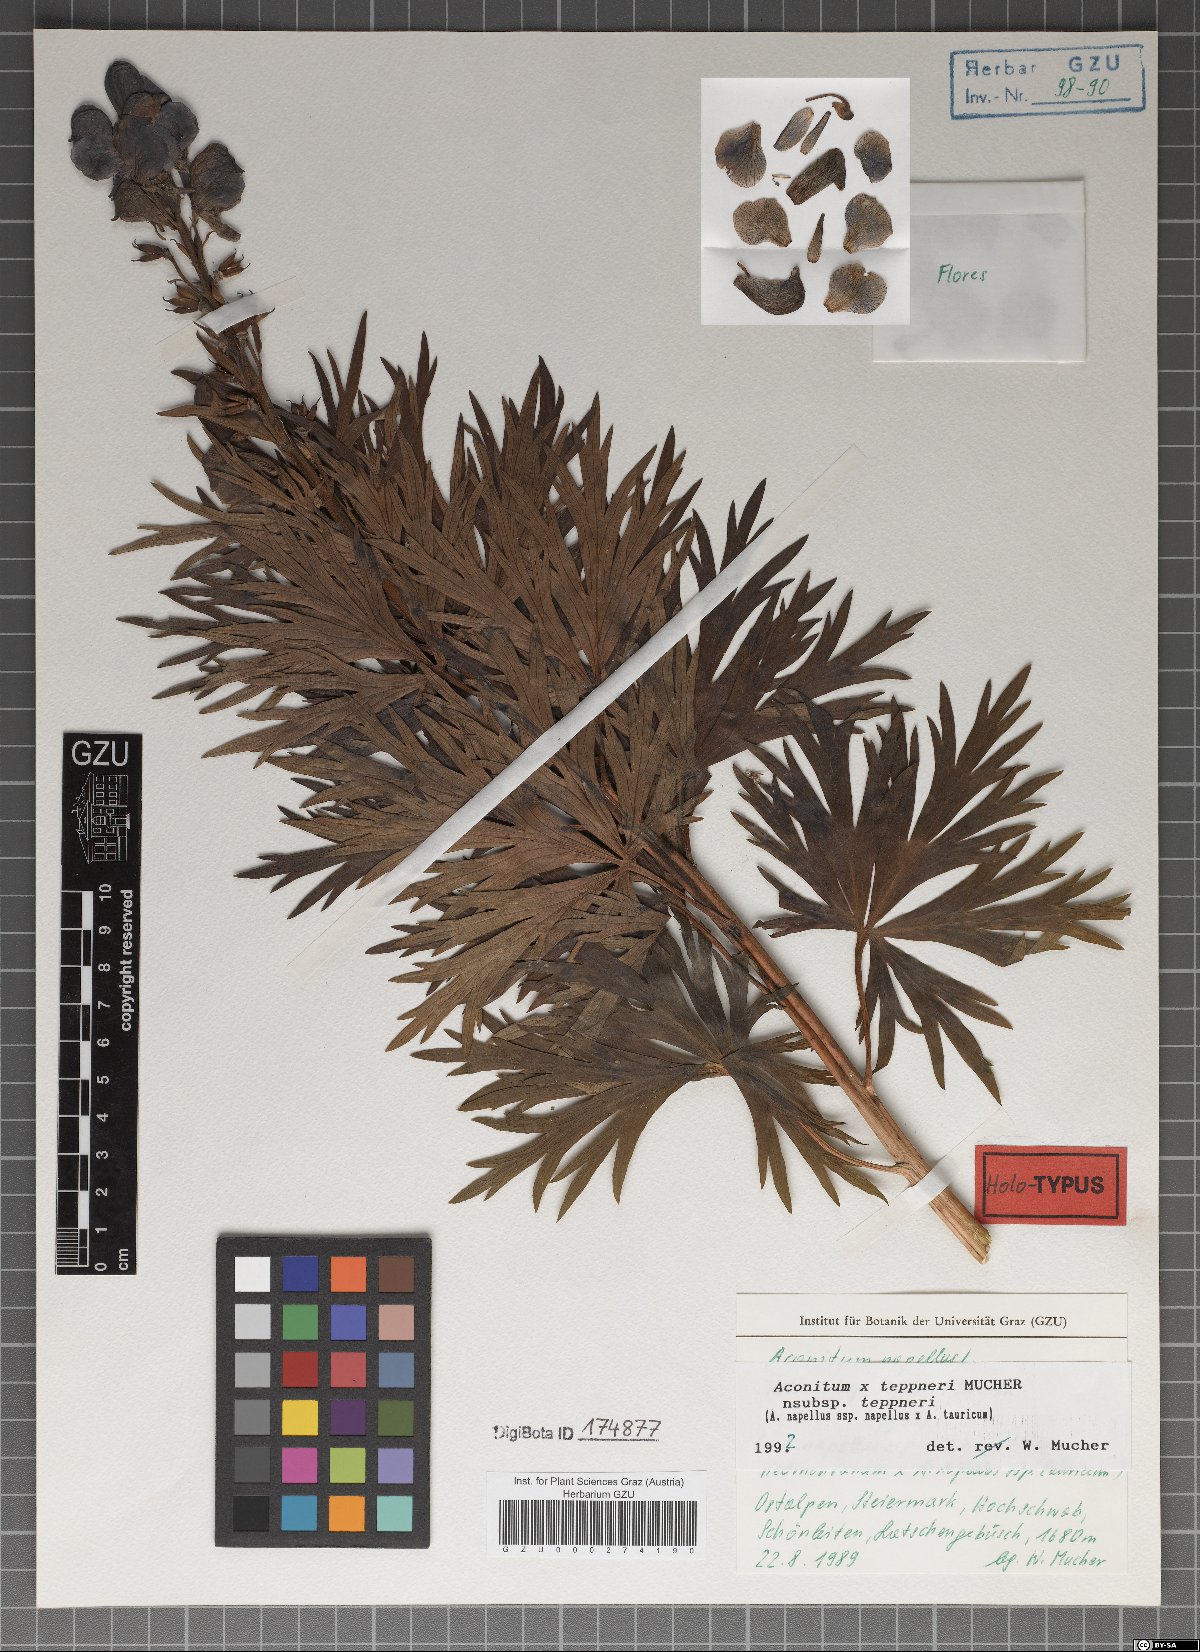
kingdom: Plantae
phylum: Tracheophyta
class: Magnoliopsida
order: Ranunculales
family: Ranunculaceae
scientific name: Ranunculaceae
